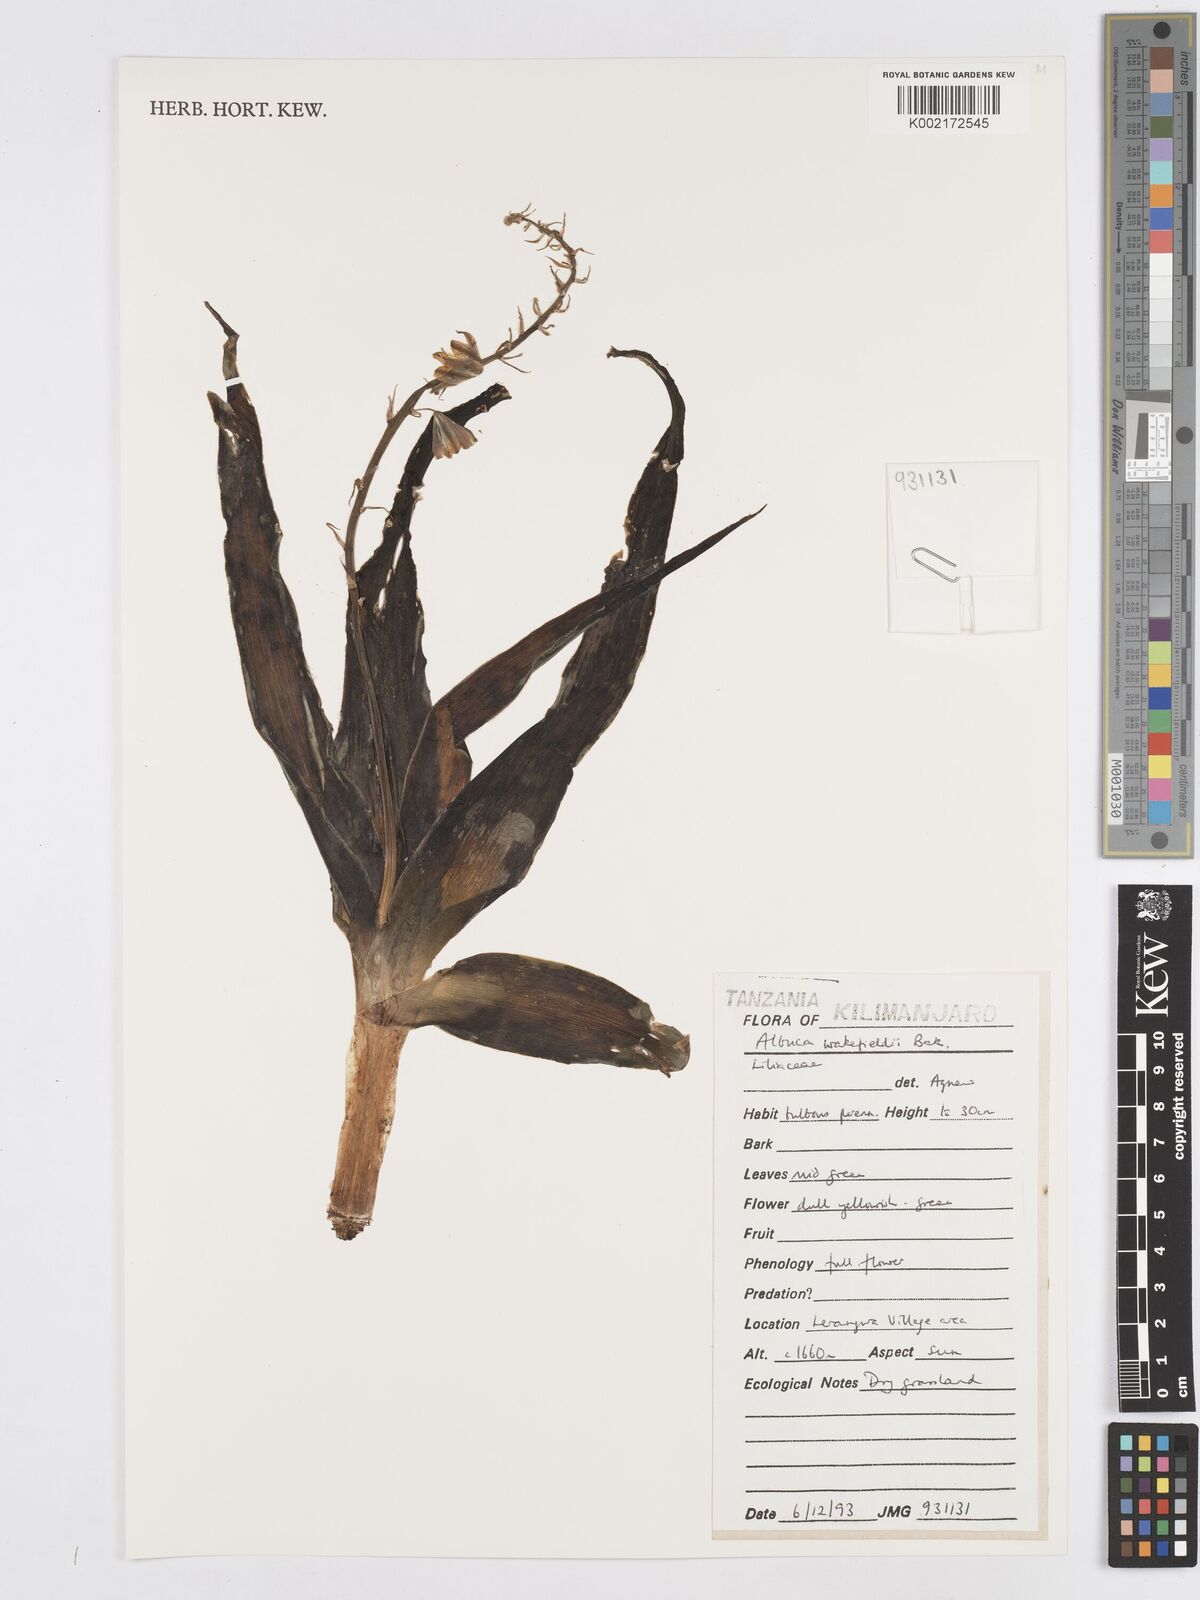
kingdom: Plantae
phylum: Tracheophyta
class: Liliopsida
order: Asparagales
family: Asparagaceae
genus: Albuca
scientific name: Albuca abyssinica
